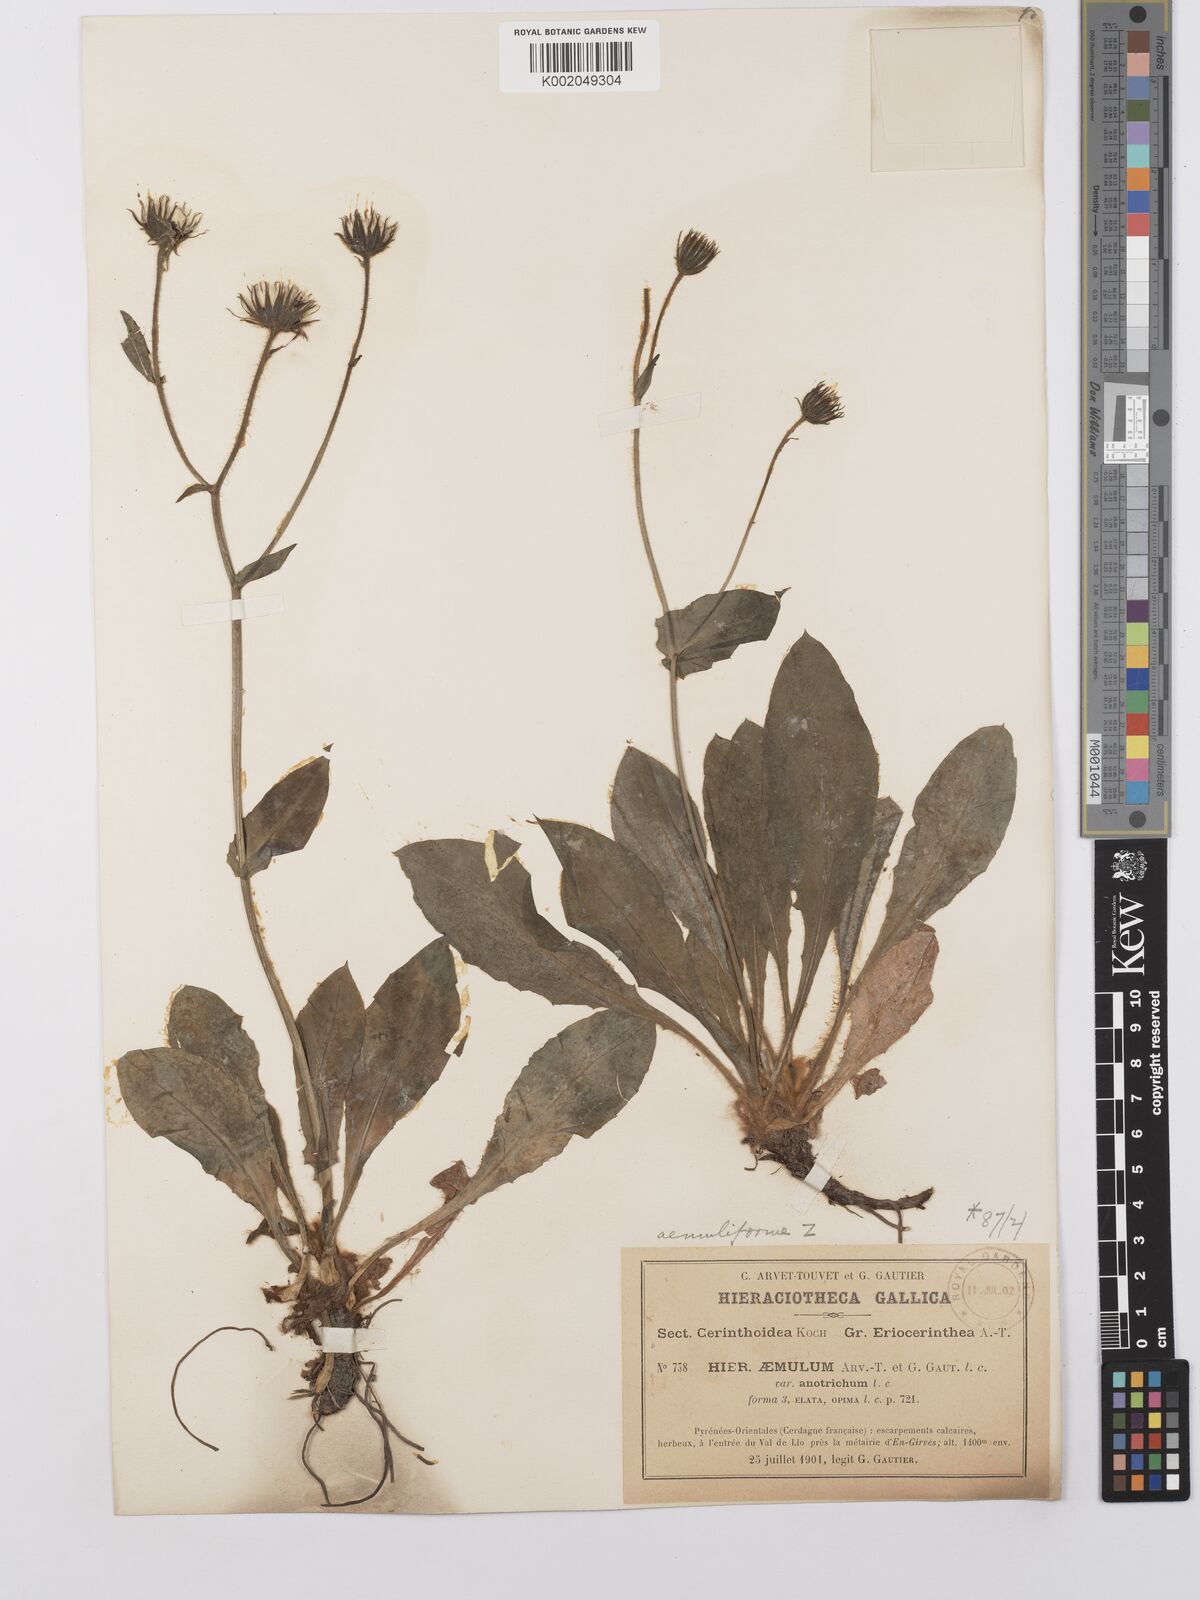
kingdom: Plantae
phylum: Tracheophyta
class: Magnoliopsida
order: Asterales
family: Asteraceae
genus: Hieracium
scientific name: Hieracium aemuliforme
